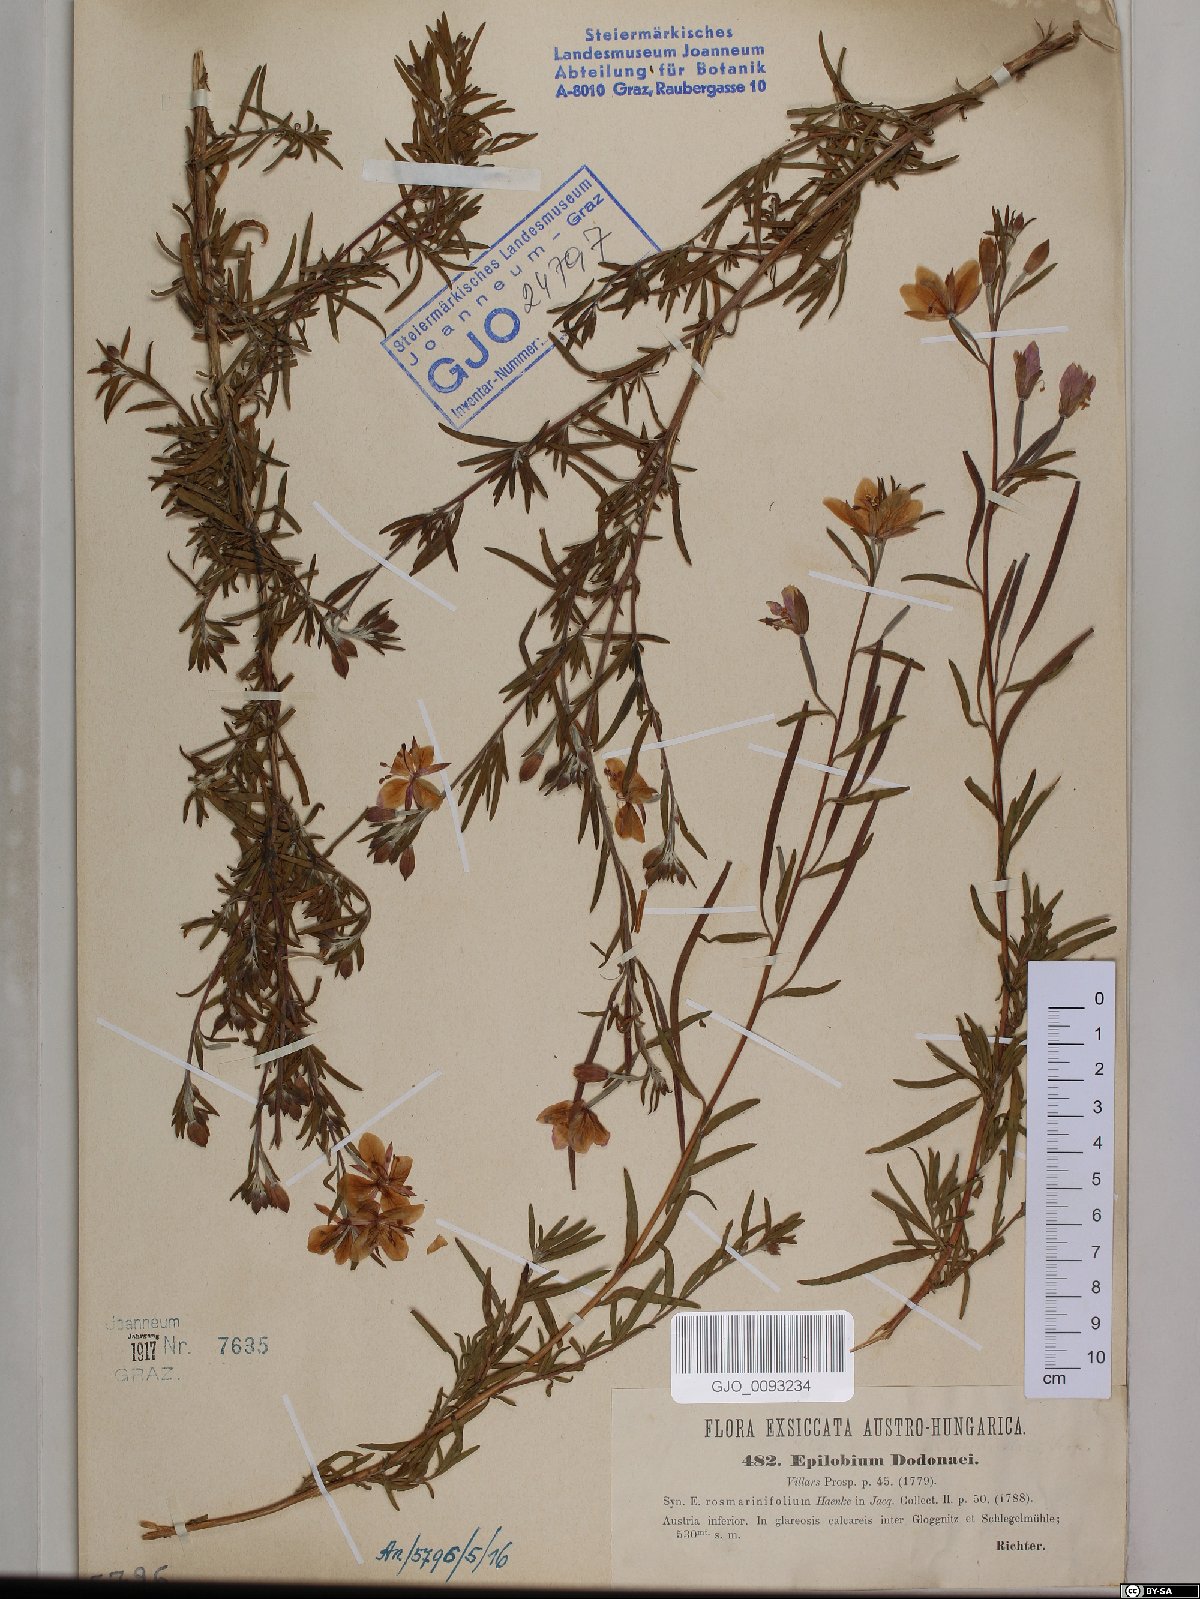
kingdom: Plantae
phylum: Tracheophyta
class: Magnoliopsida
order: Myrtales
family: Onagraceae
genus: Chamaenerion
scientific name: Chamaenerion dodonaei
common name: Rosemary-leaved willowherb
